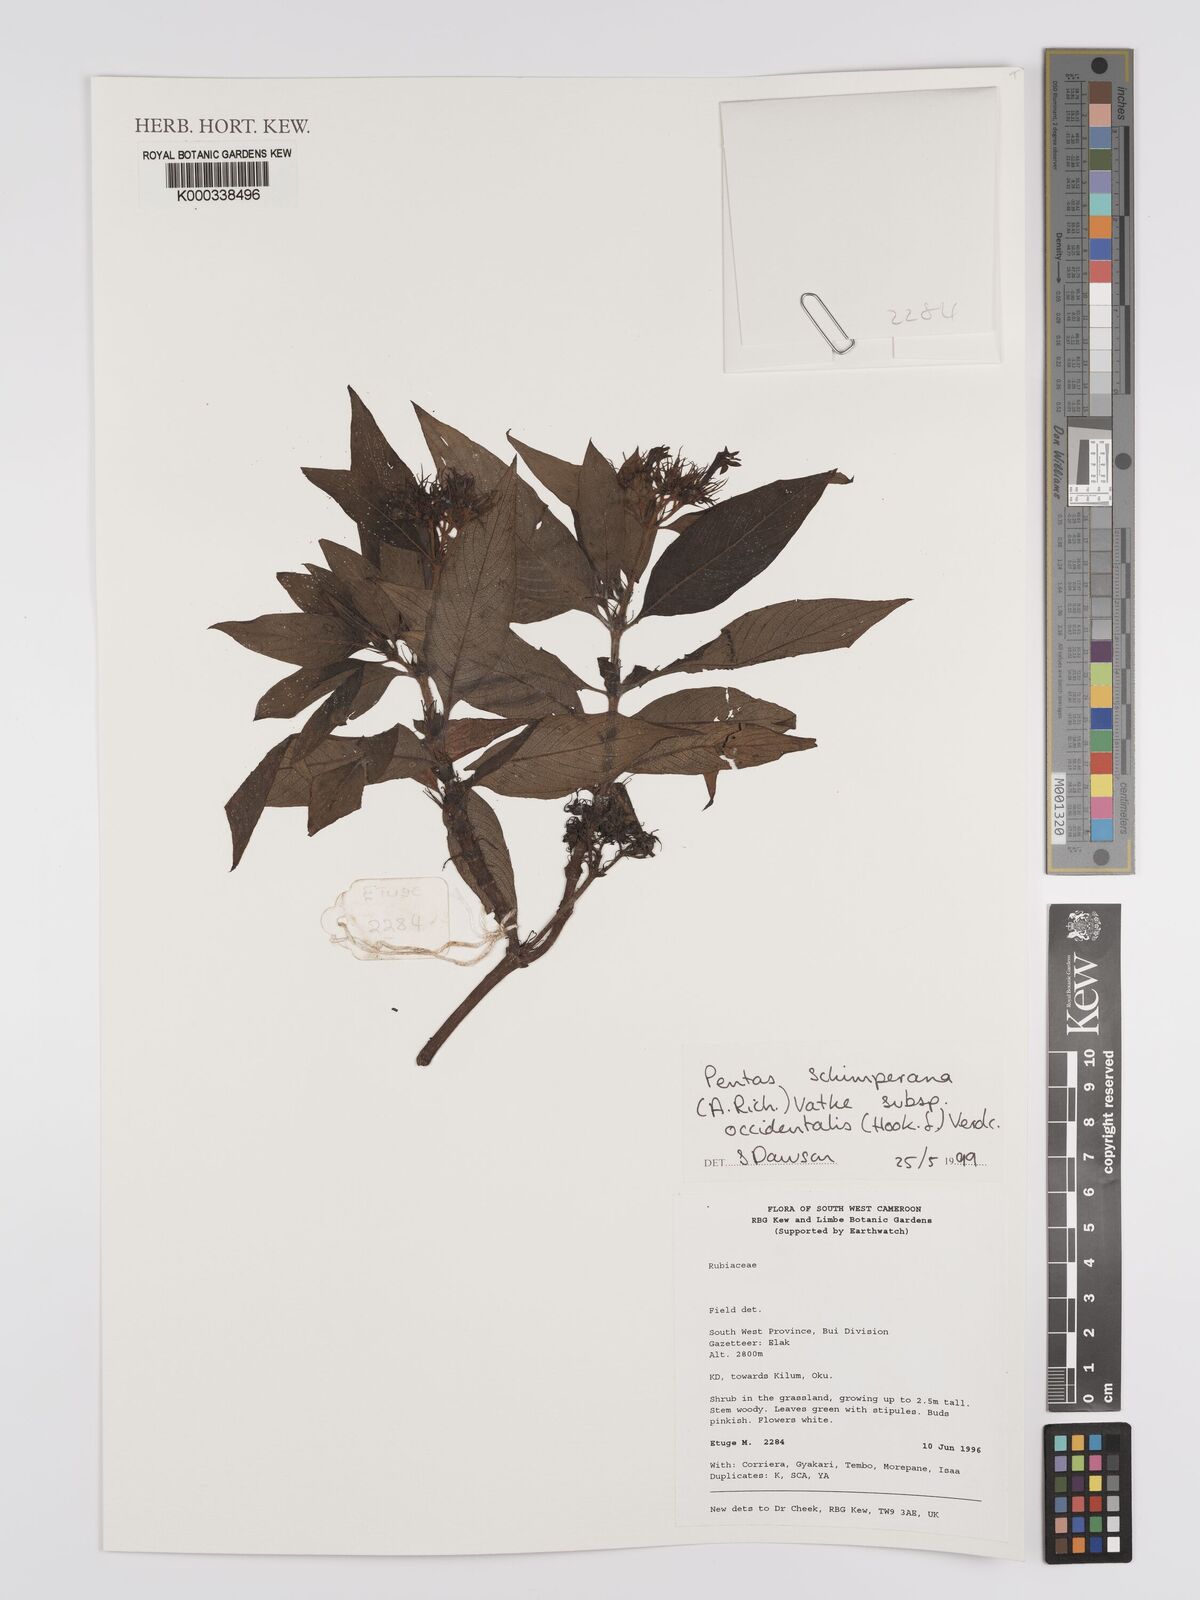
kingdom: Plantae
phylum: Tracheophyta
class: Magnoliopsida
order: Gentianales
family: Rubiaceae
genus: Phyllopentas
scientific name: Phyllopentas schimperi
